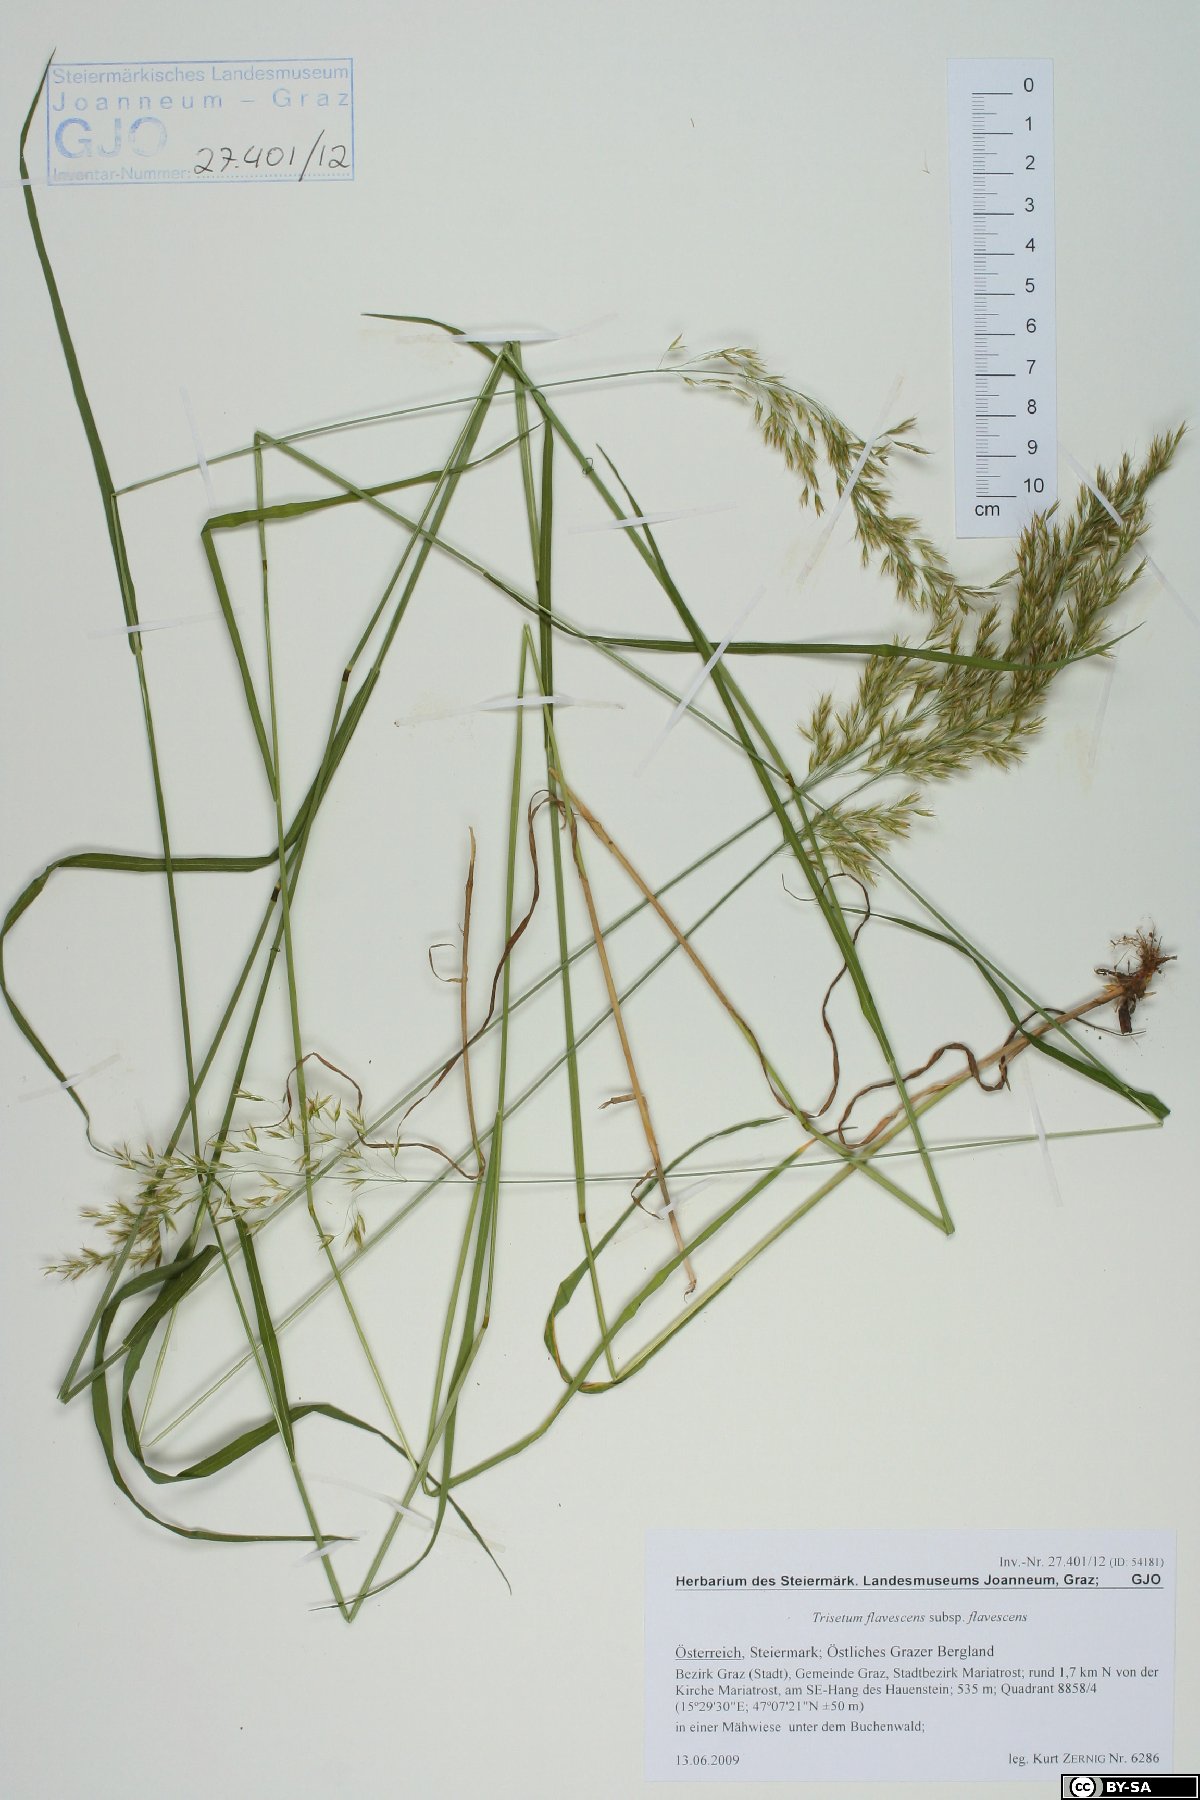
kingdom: Plantae
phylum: Tracheophyta
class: Liliopsida
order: Poales
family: Poaceae
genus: Trisetum
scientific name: Trisetum flavescens
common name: Yellow oat-grass
